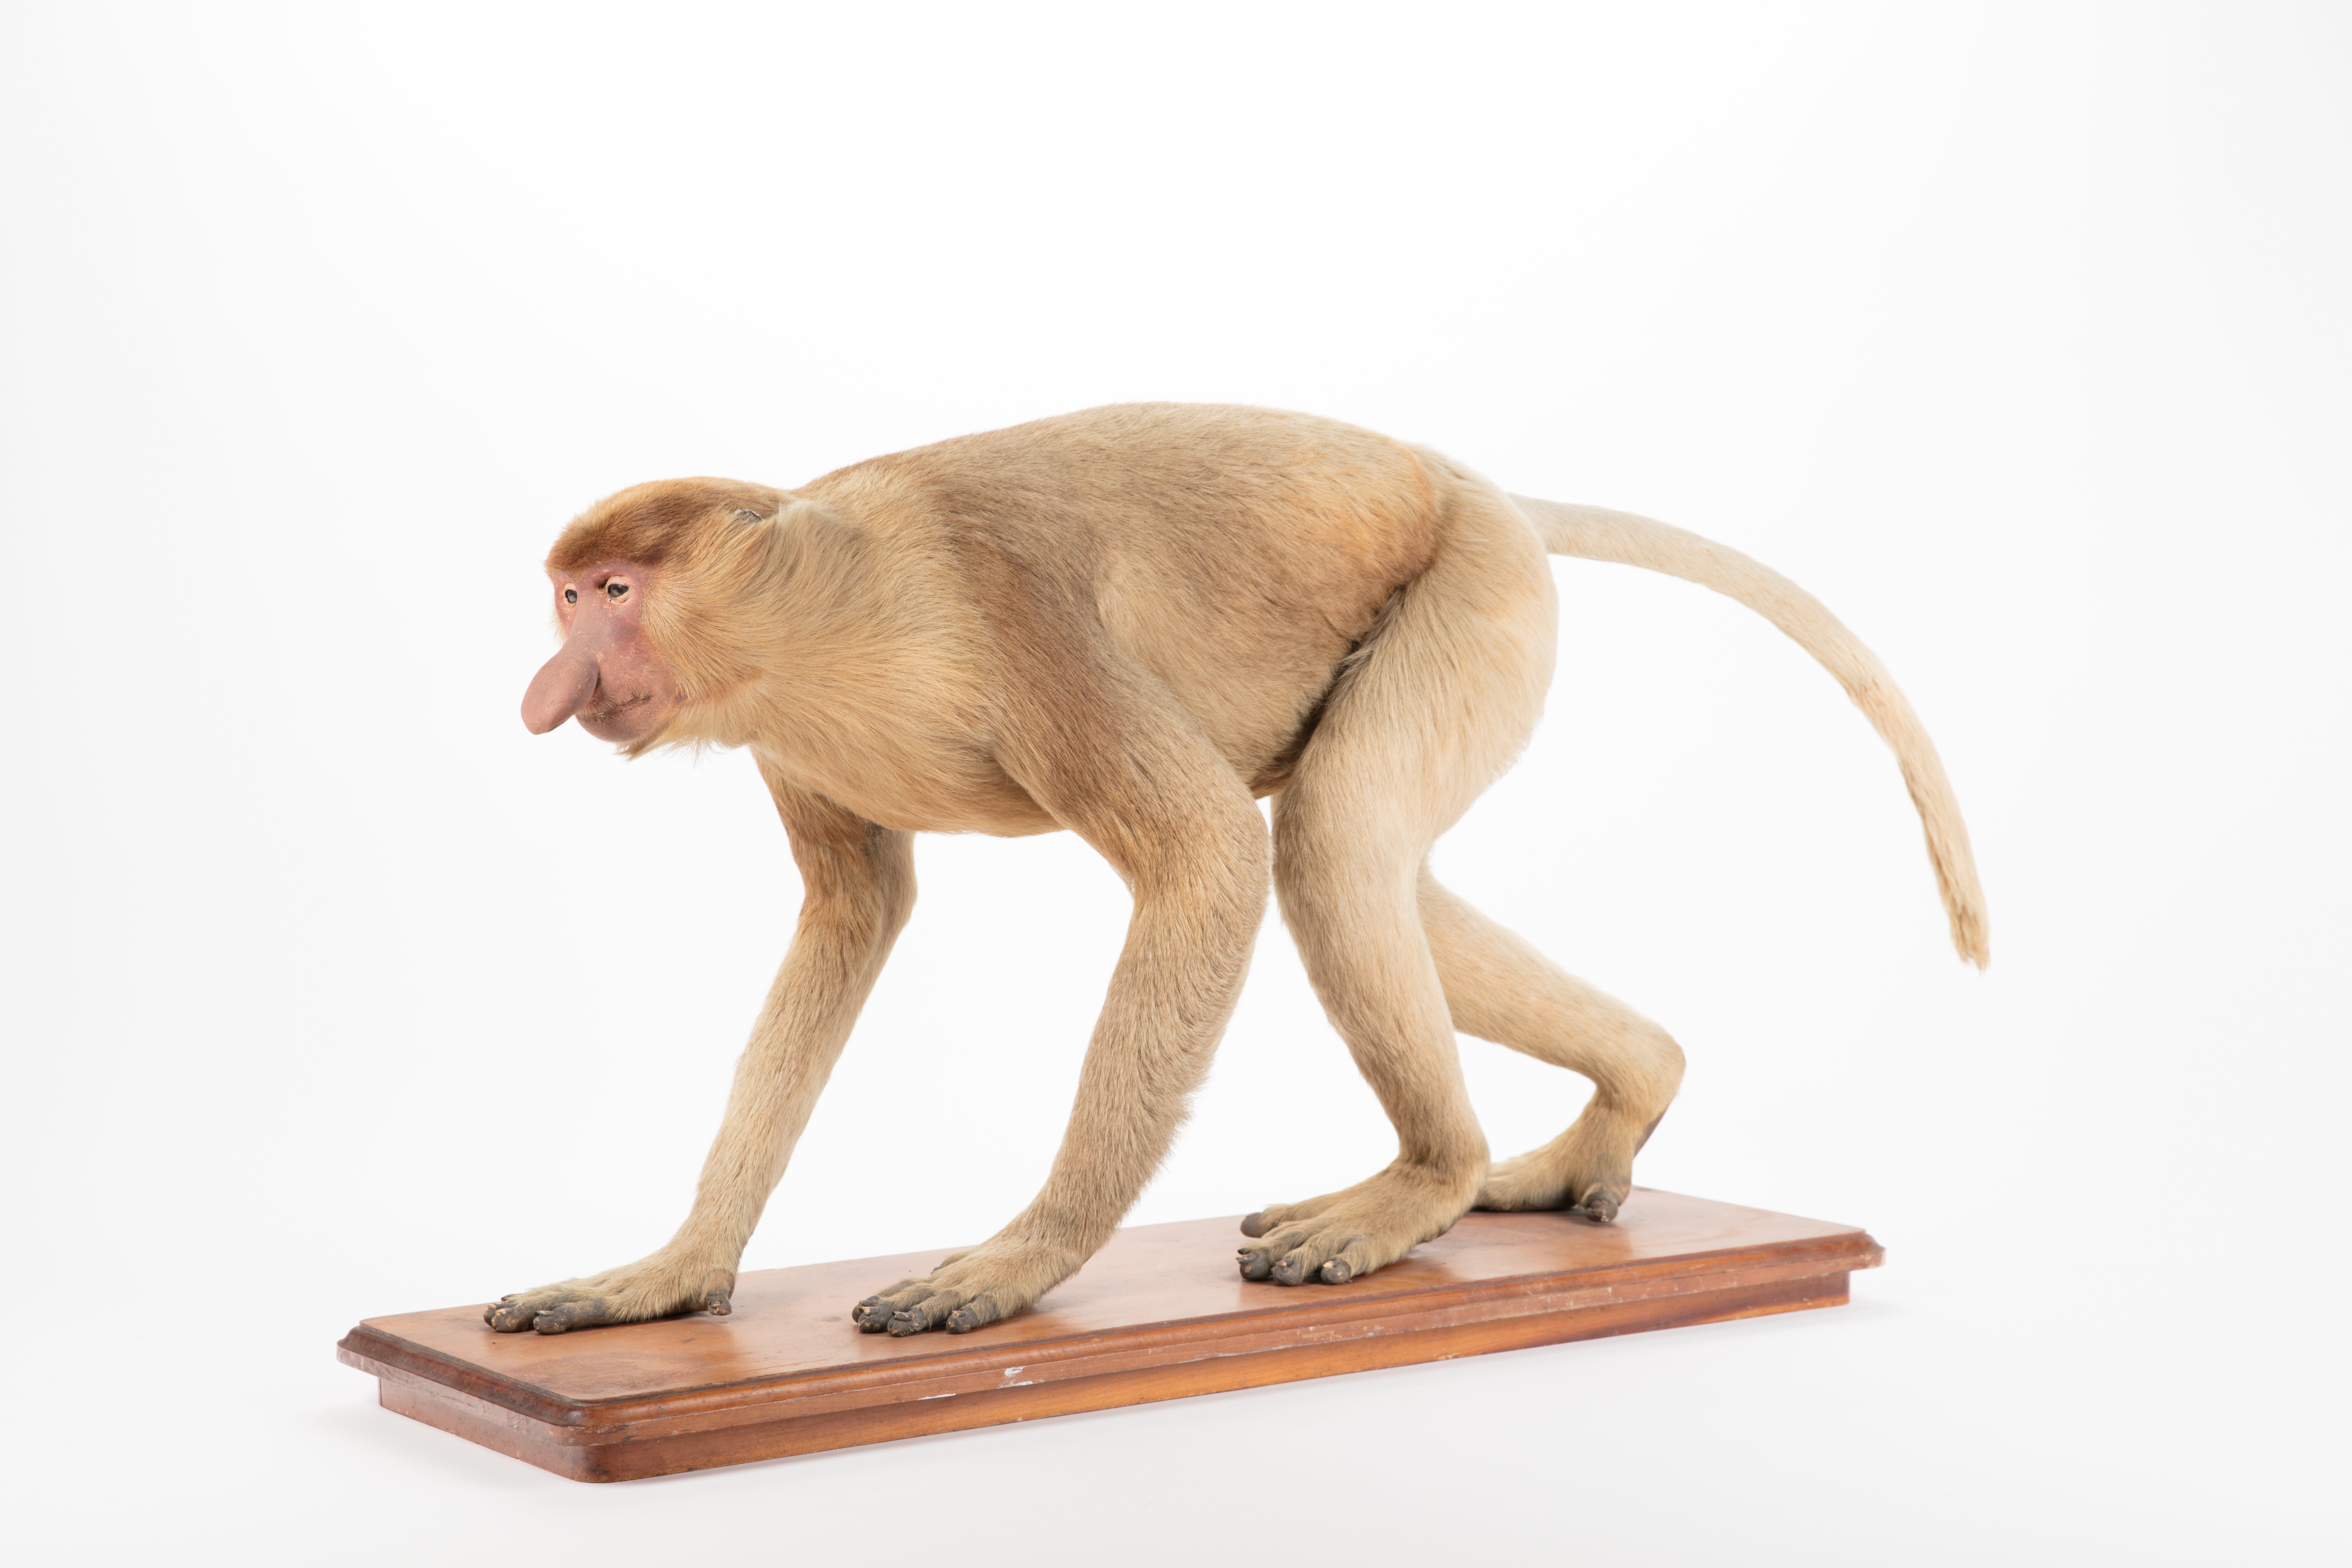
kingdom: Animalia
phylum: Chordata
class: Mammalia
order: Primates
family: Cercopithecidae
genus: Nasalis
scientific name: Nasalis larvatus
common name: Proboscis monkey
